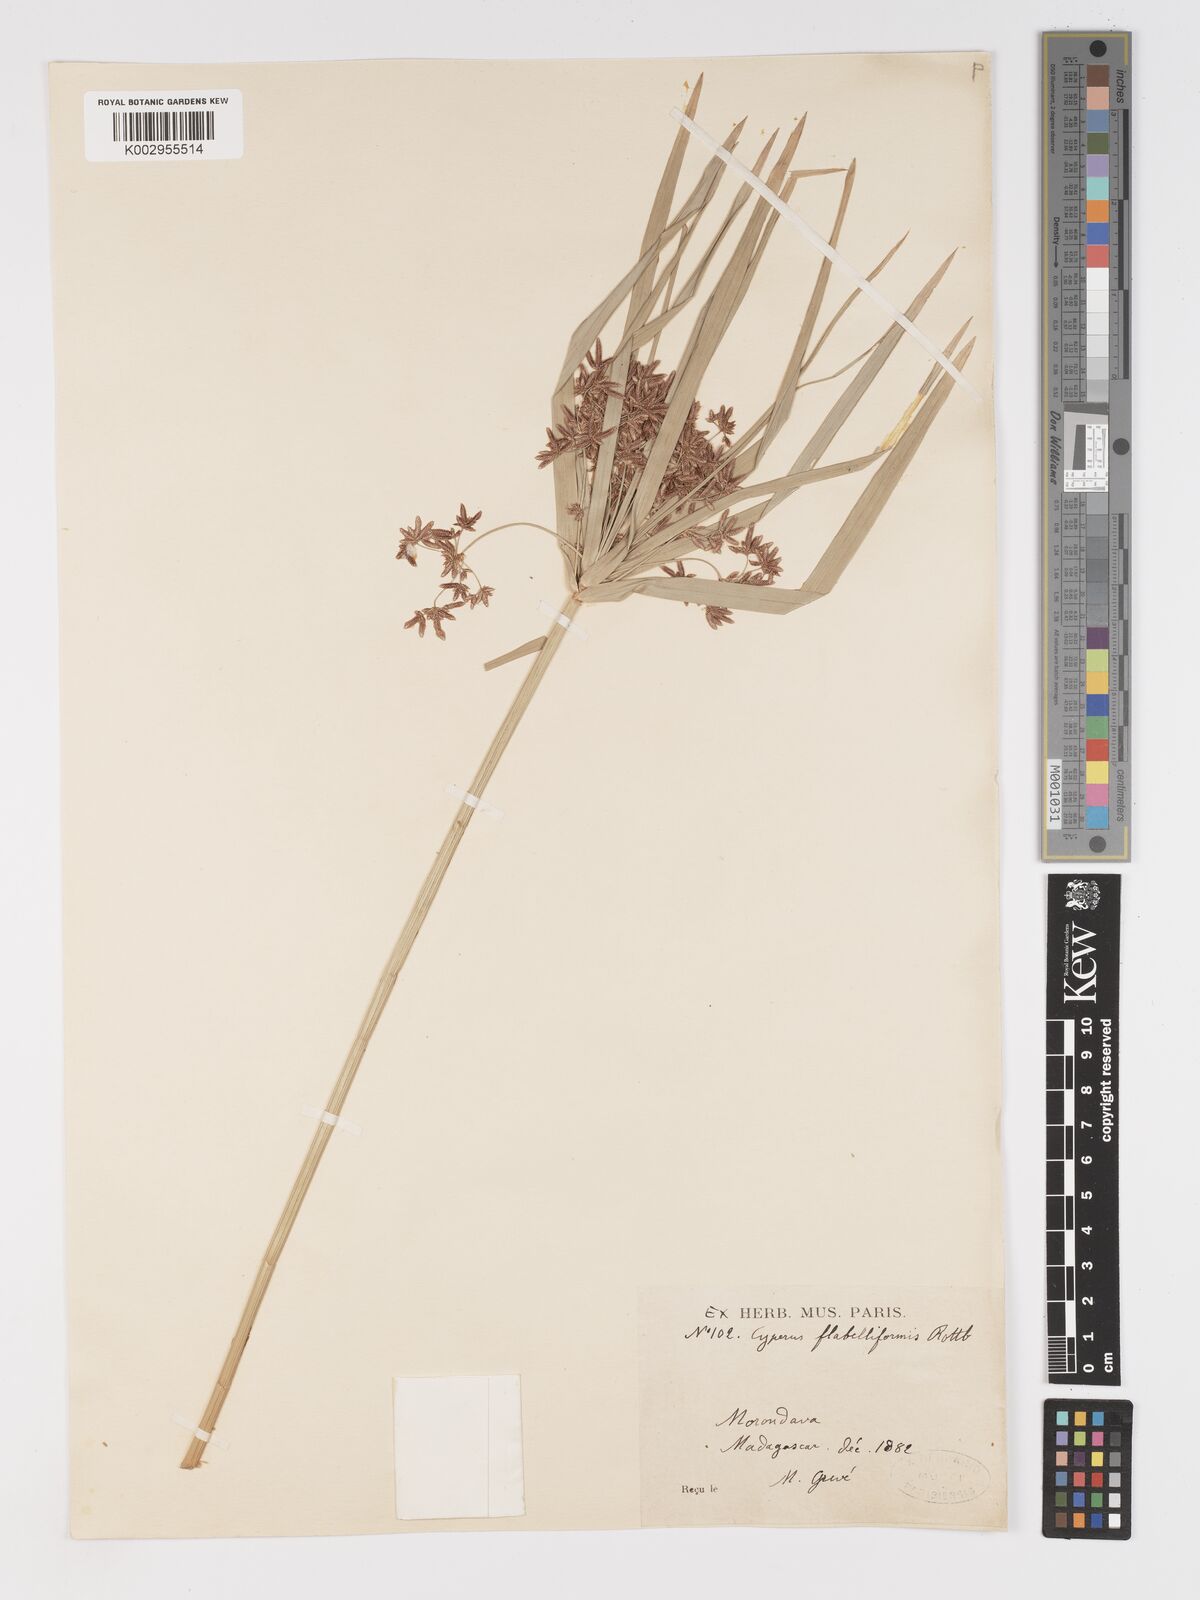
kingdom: Plantae
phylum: Tracheophyta
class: Liliopsida
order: Poales
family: Cyperaceae
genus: Cyperus
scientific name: Cyperus alternifolius
